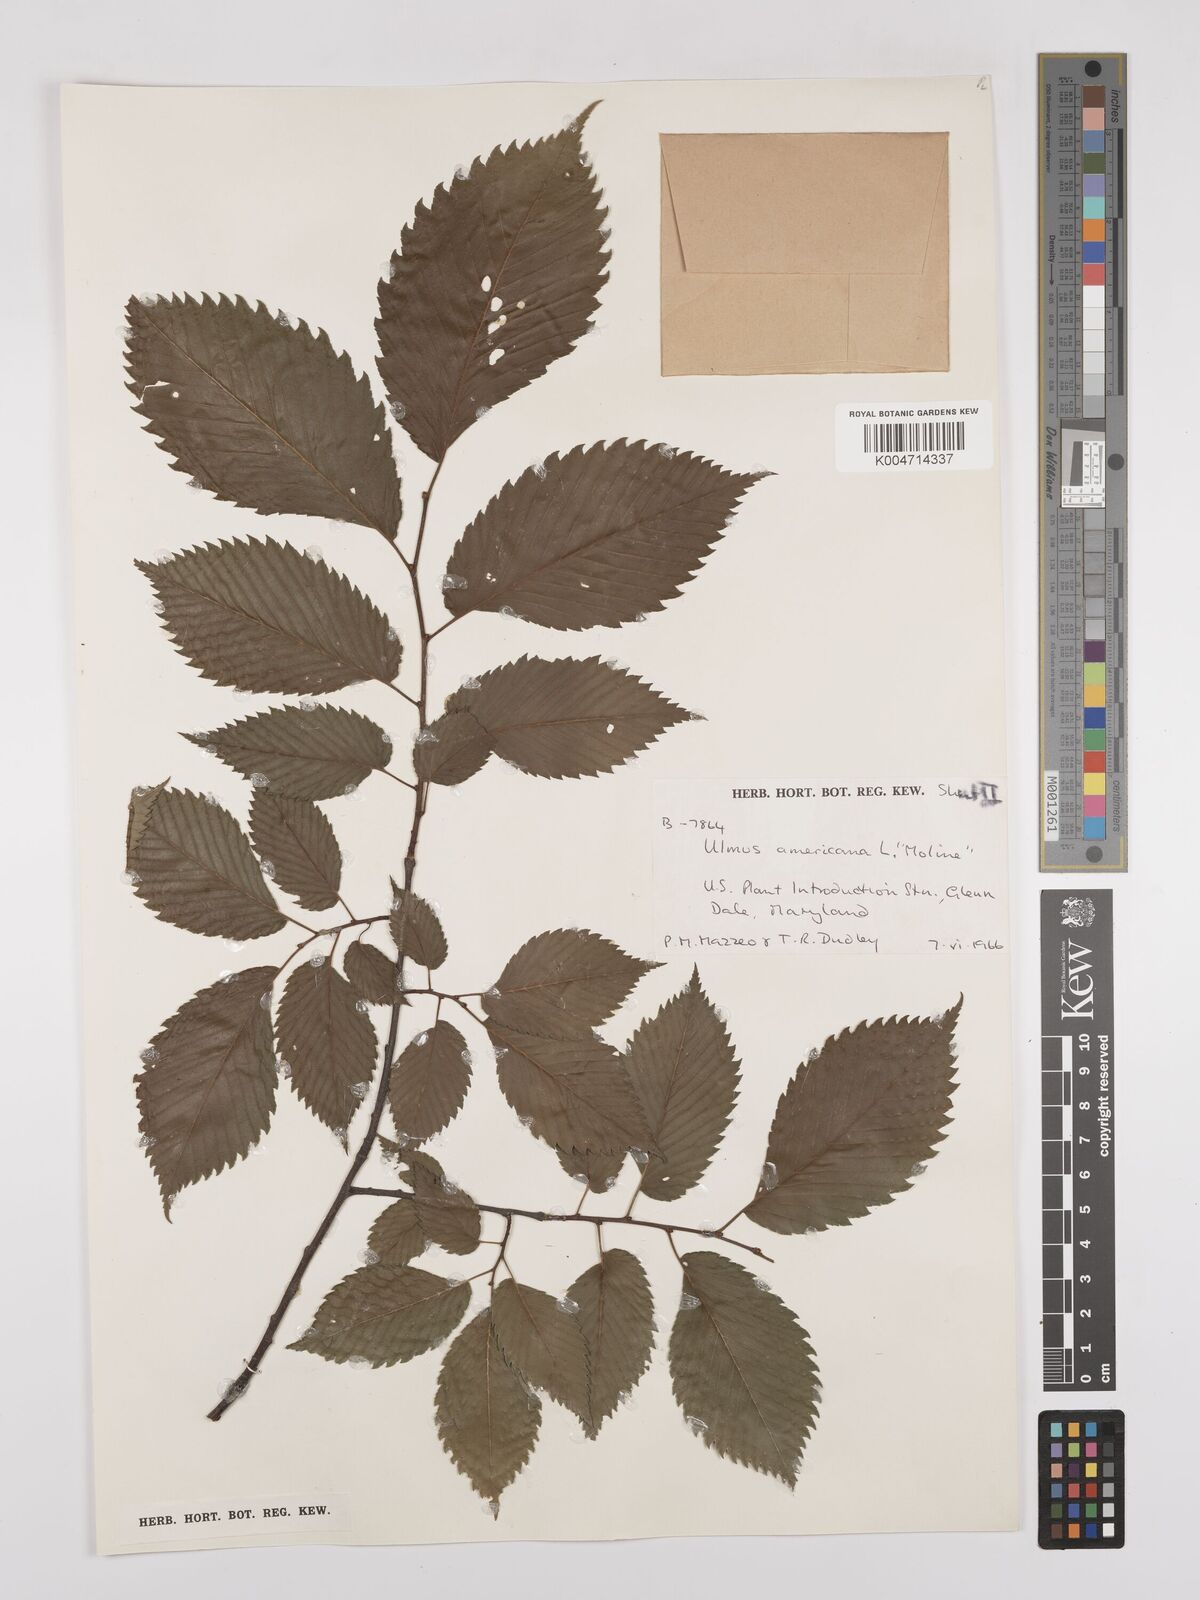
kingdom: Plantae
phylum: Tracheophyta
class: Magnoliopsida
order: Rosales
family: Ulmaceae
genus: Ulmus
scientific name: Ulmus americana
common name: American elm
